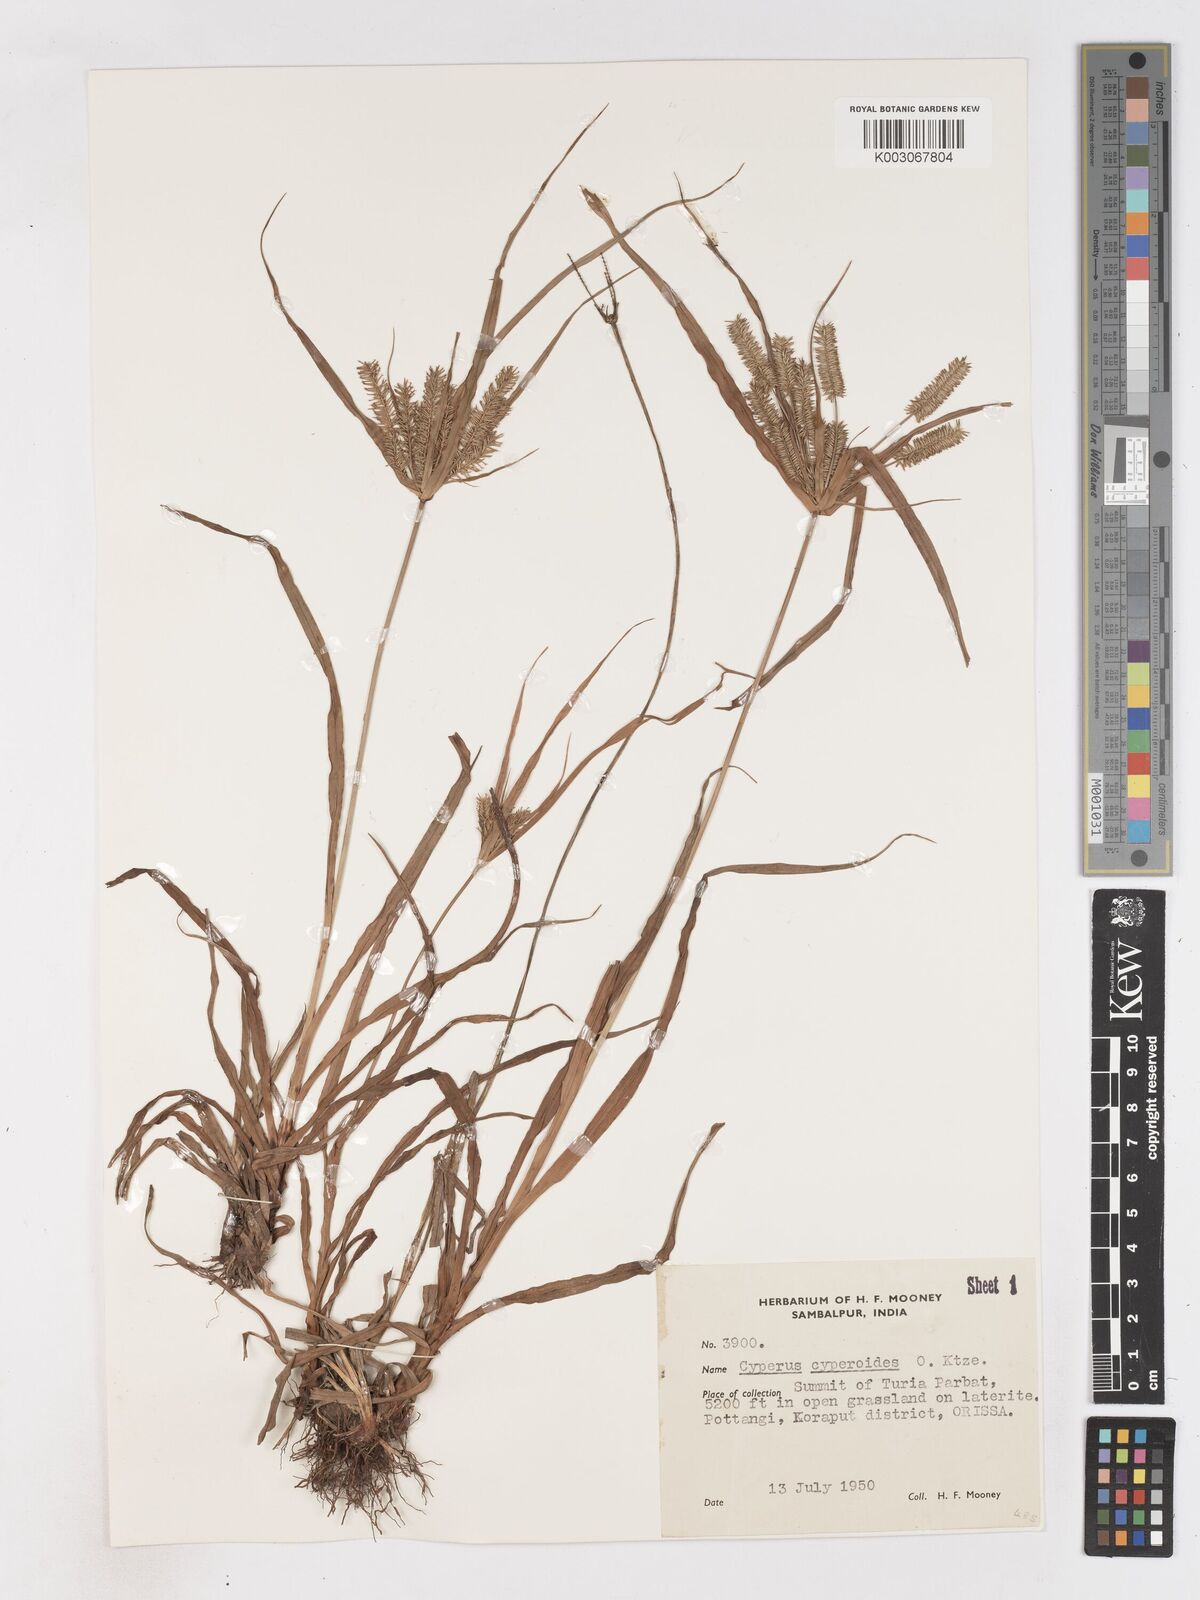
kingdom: Plantae
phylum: Tracheophyta
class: Liliopsida
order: Poales
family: Cyperaceae
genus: Cyperus
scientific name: Cyperus cyperoides
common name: Pacific island flat sedge
